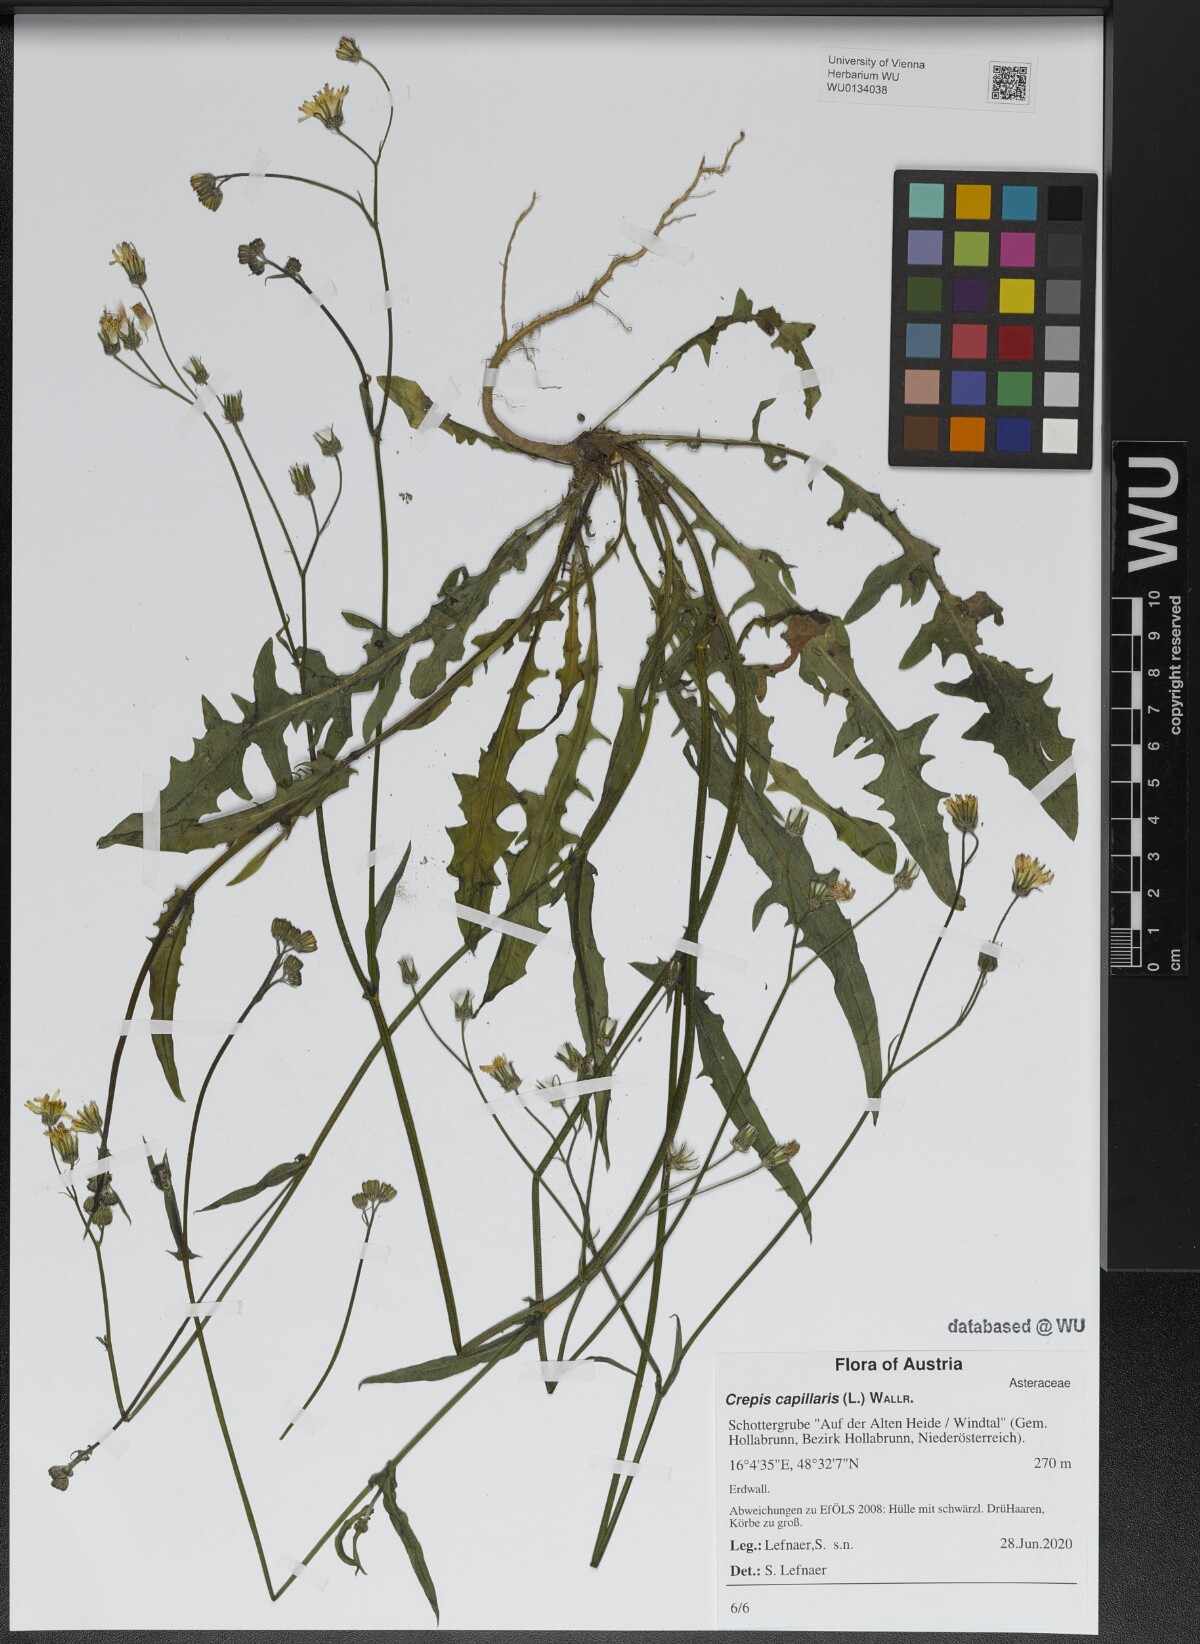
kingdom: Plantae
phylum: Tracheophyta
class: Magnoliopsida
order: Asterales
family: Asteraceae
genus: Crepis
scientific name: Crepis capillaris
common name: Smooth hawksbeard
